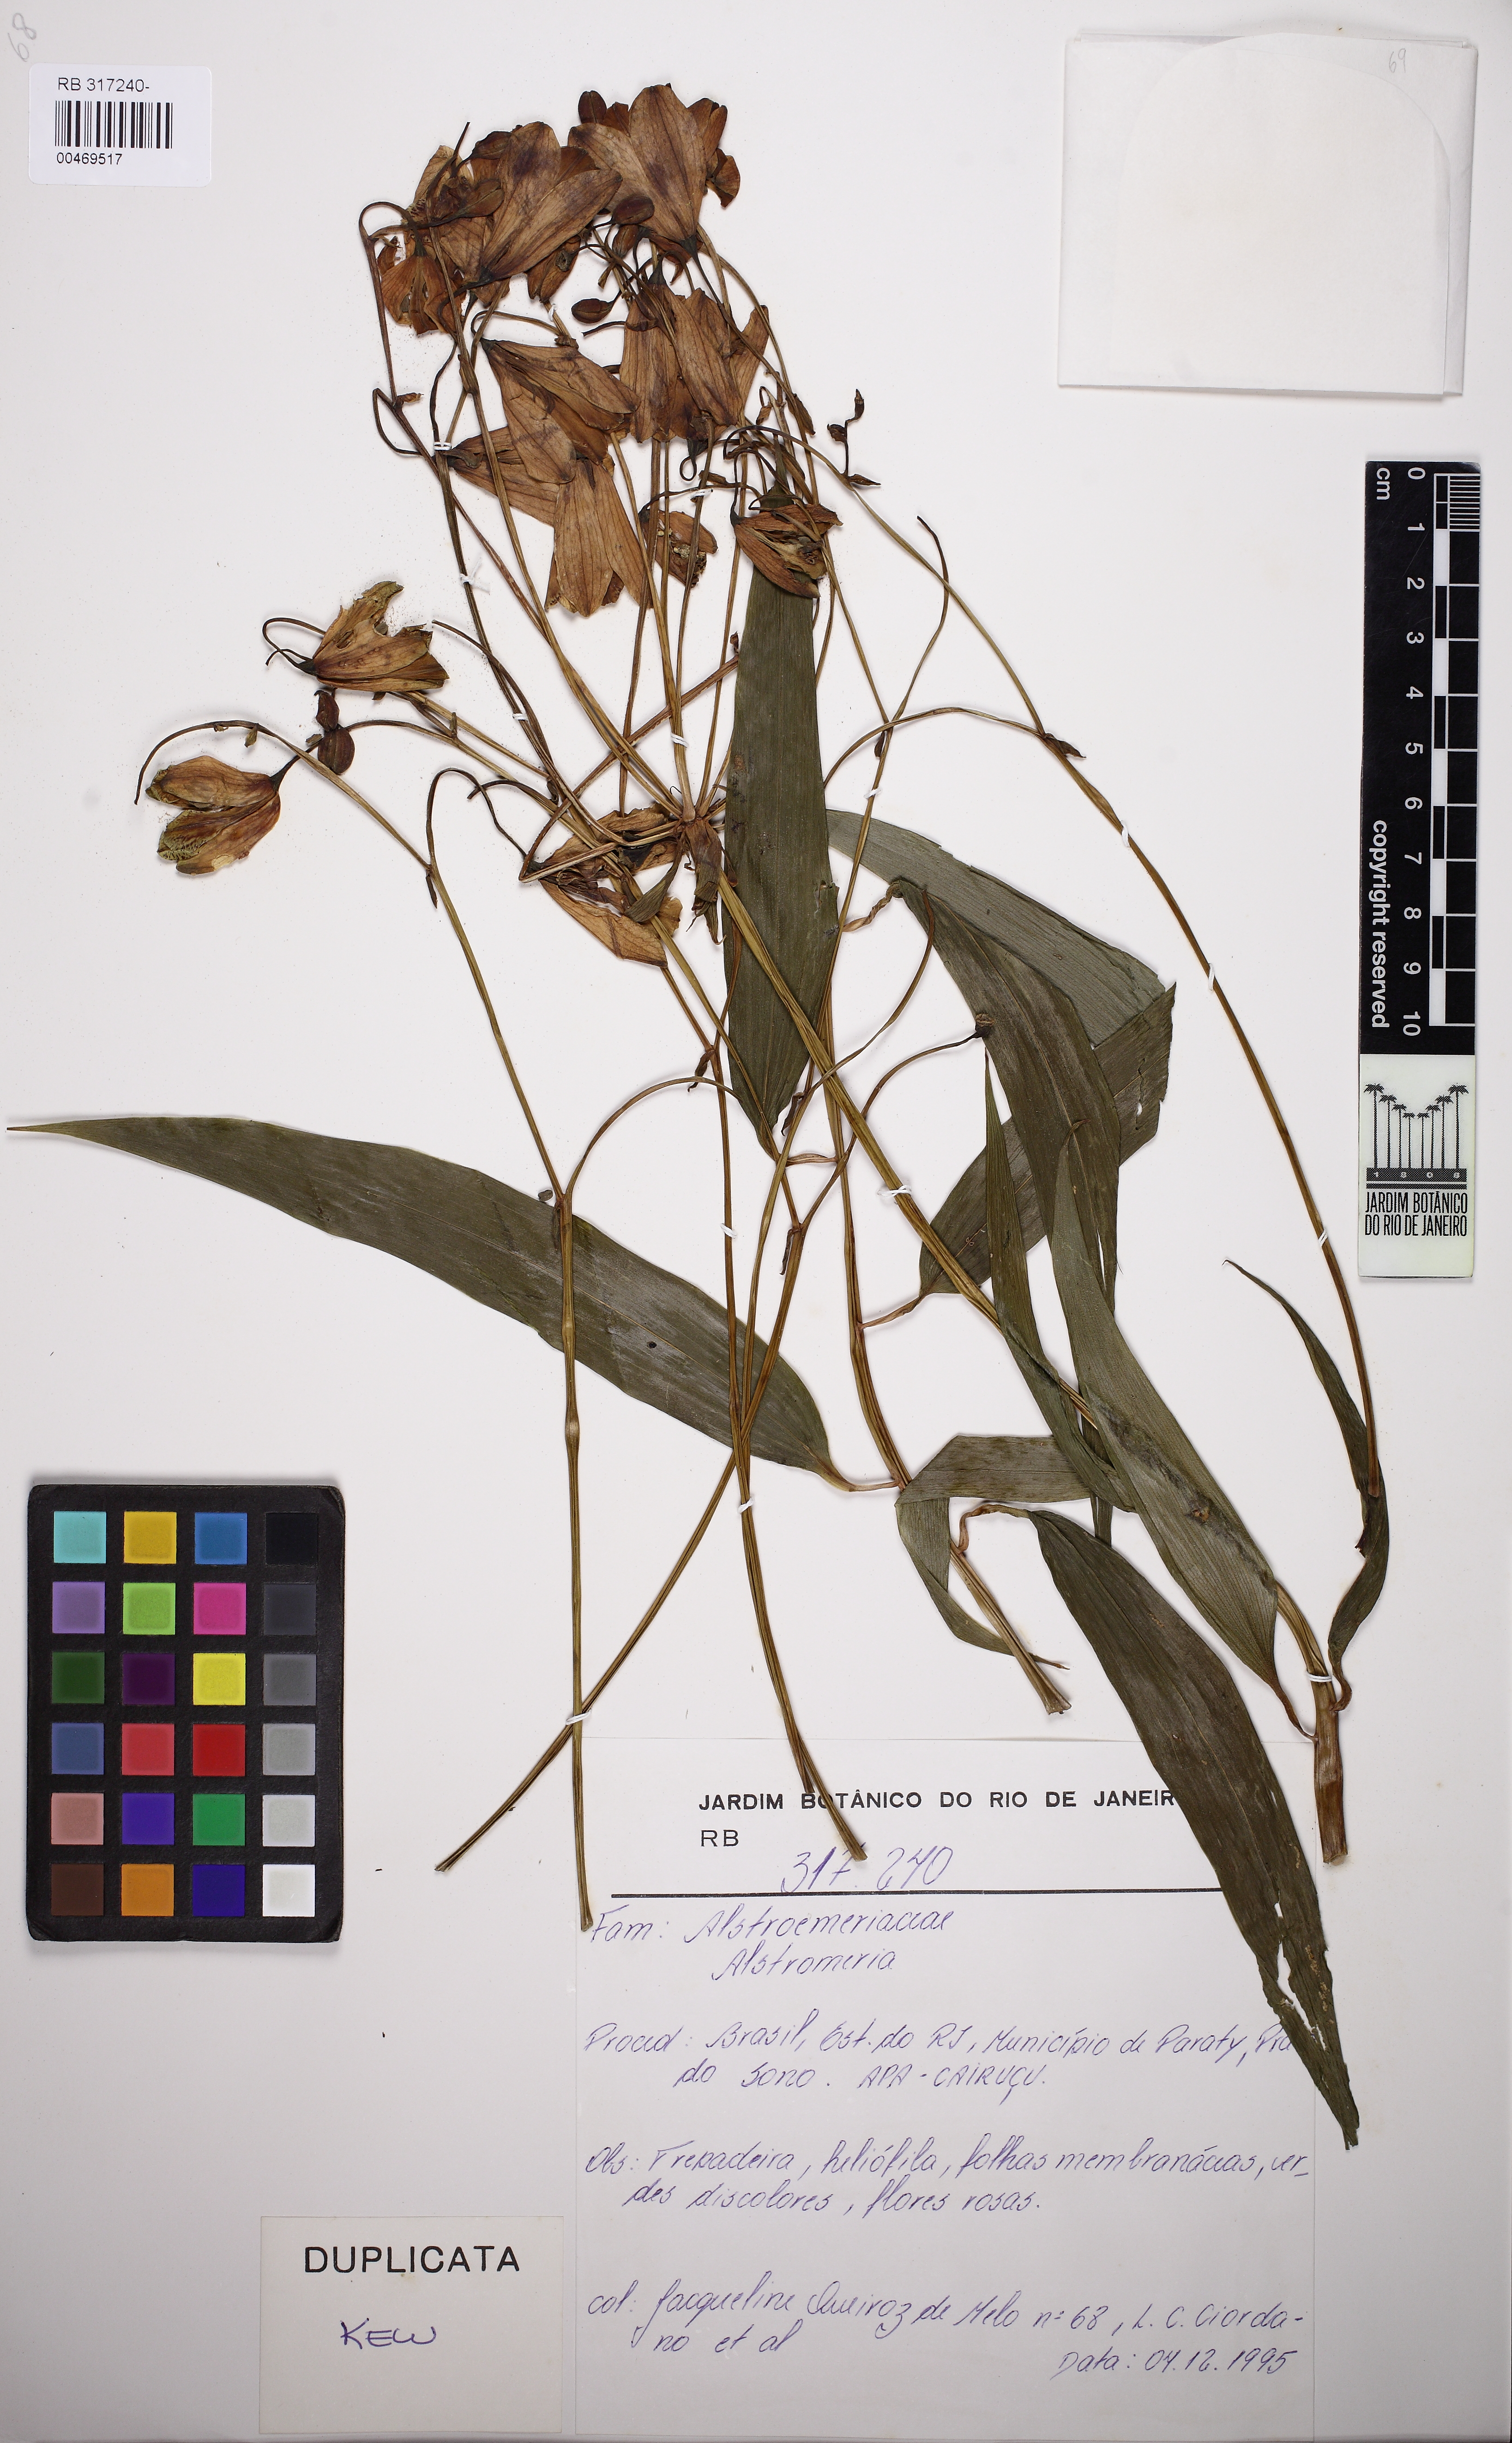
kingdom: Plantae
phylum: Tracheophyta
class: Liliopsida
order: Liliales
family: Alstroemeriaceae
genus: Alstroemeria
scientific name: Alstroemeria
